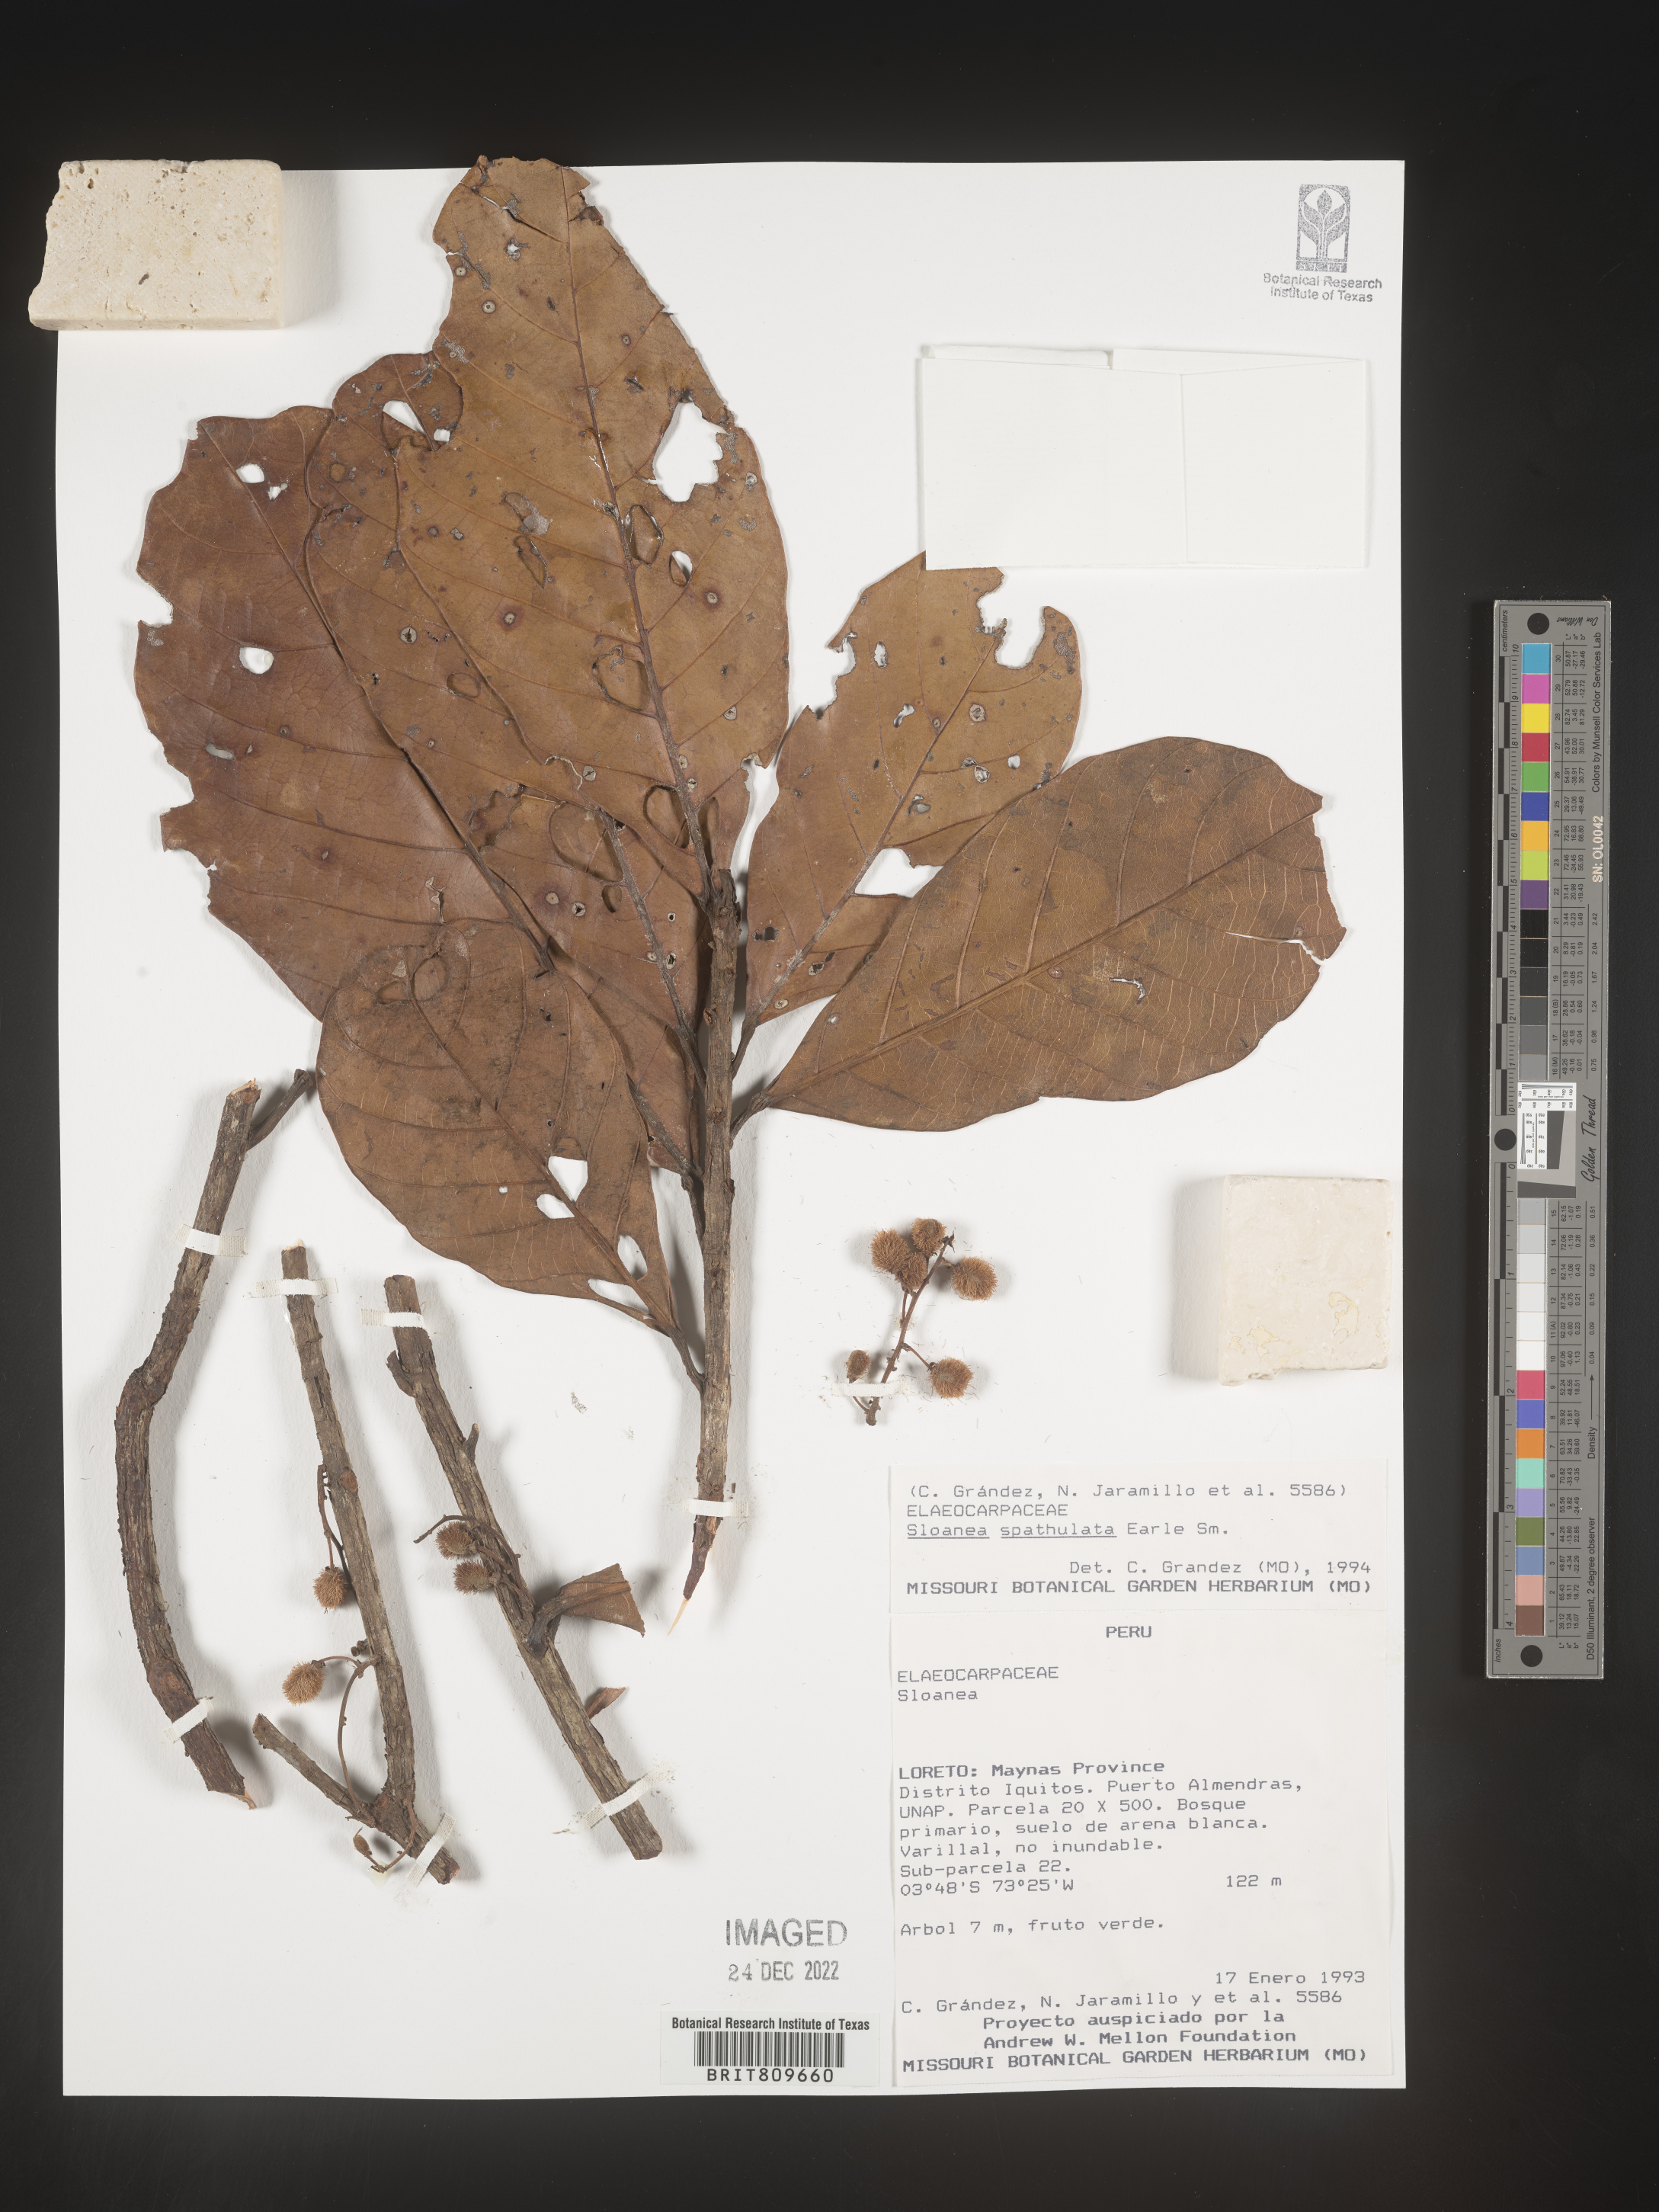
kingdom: Plantae
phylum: Tracheophyta
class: Magnoliopsida
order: Oxalidales
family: Elaeocarpaceae
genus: Sloanea
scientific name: Sloanea
